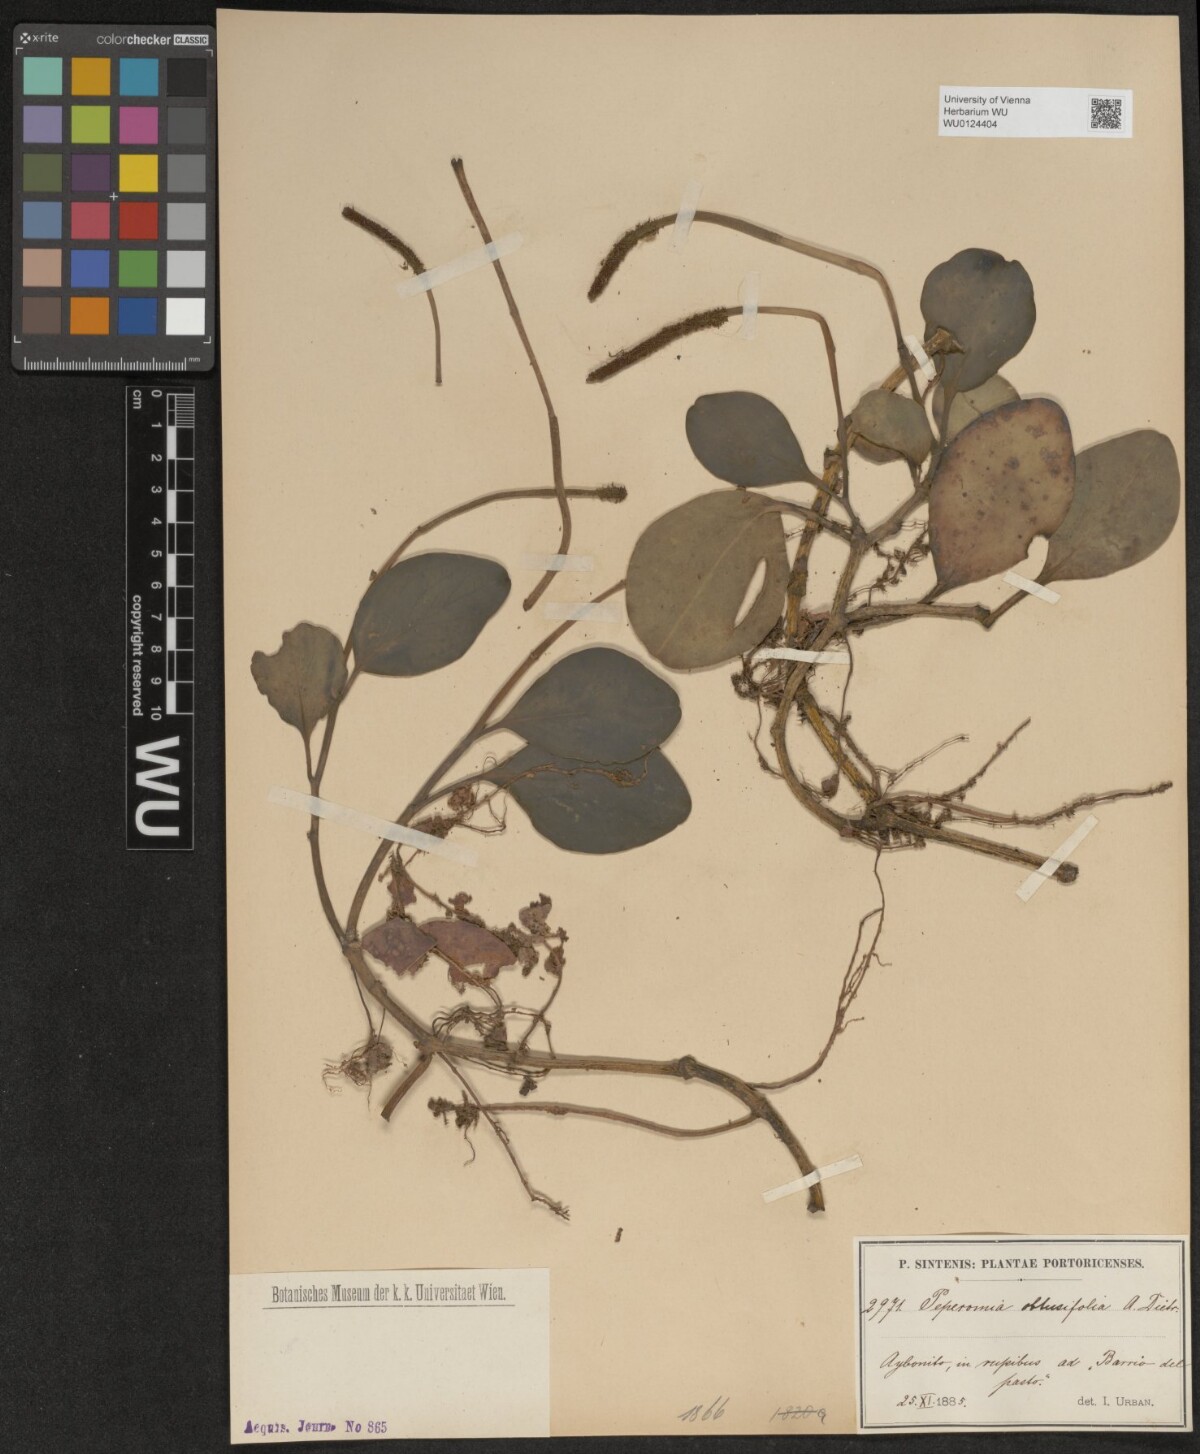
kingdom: Plantae
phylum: Tracheophyta
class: Magnoliopsida
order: Piperales
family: Piperaceae
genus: Peperomia
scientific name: Peperomia obtusifolia
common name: Baby rubberplant
